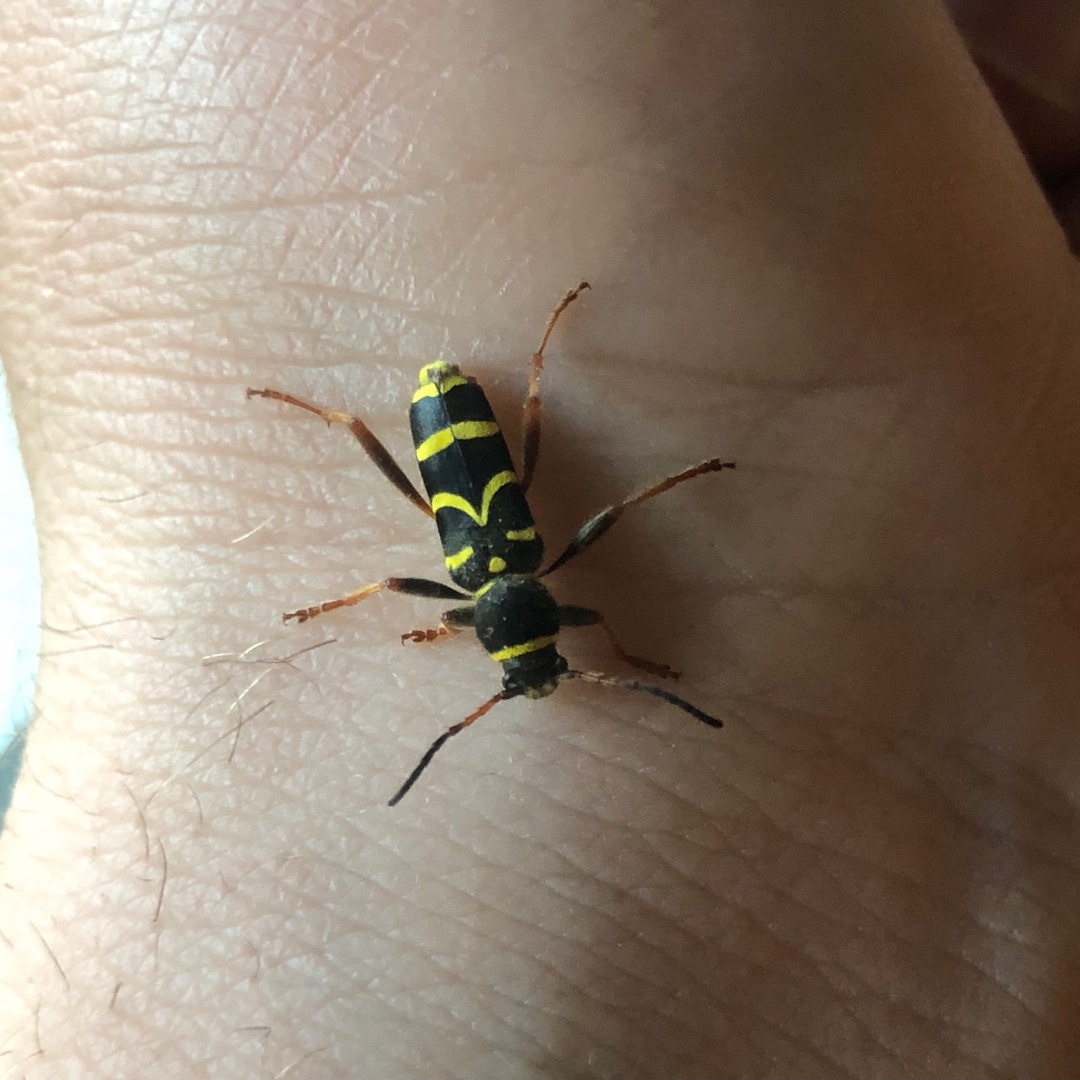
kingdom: Animalia
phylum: Arthropoda
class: Insecta
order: Coleoptera
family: Cerambycidae
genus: Clytus
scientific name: Clytus arietis
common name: Lille hvepsebuk
